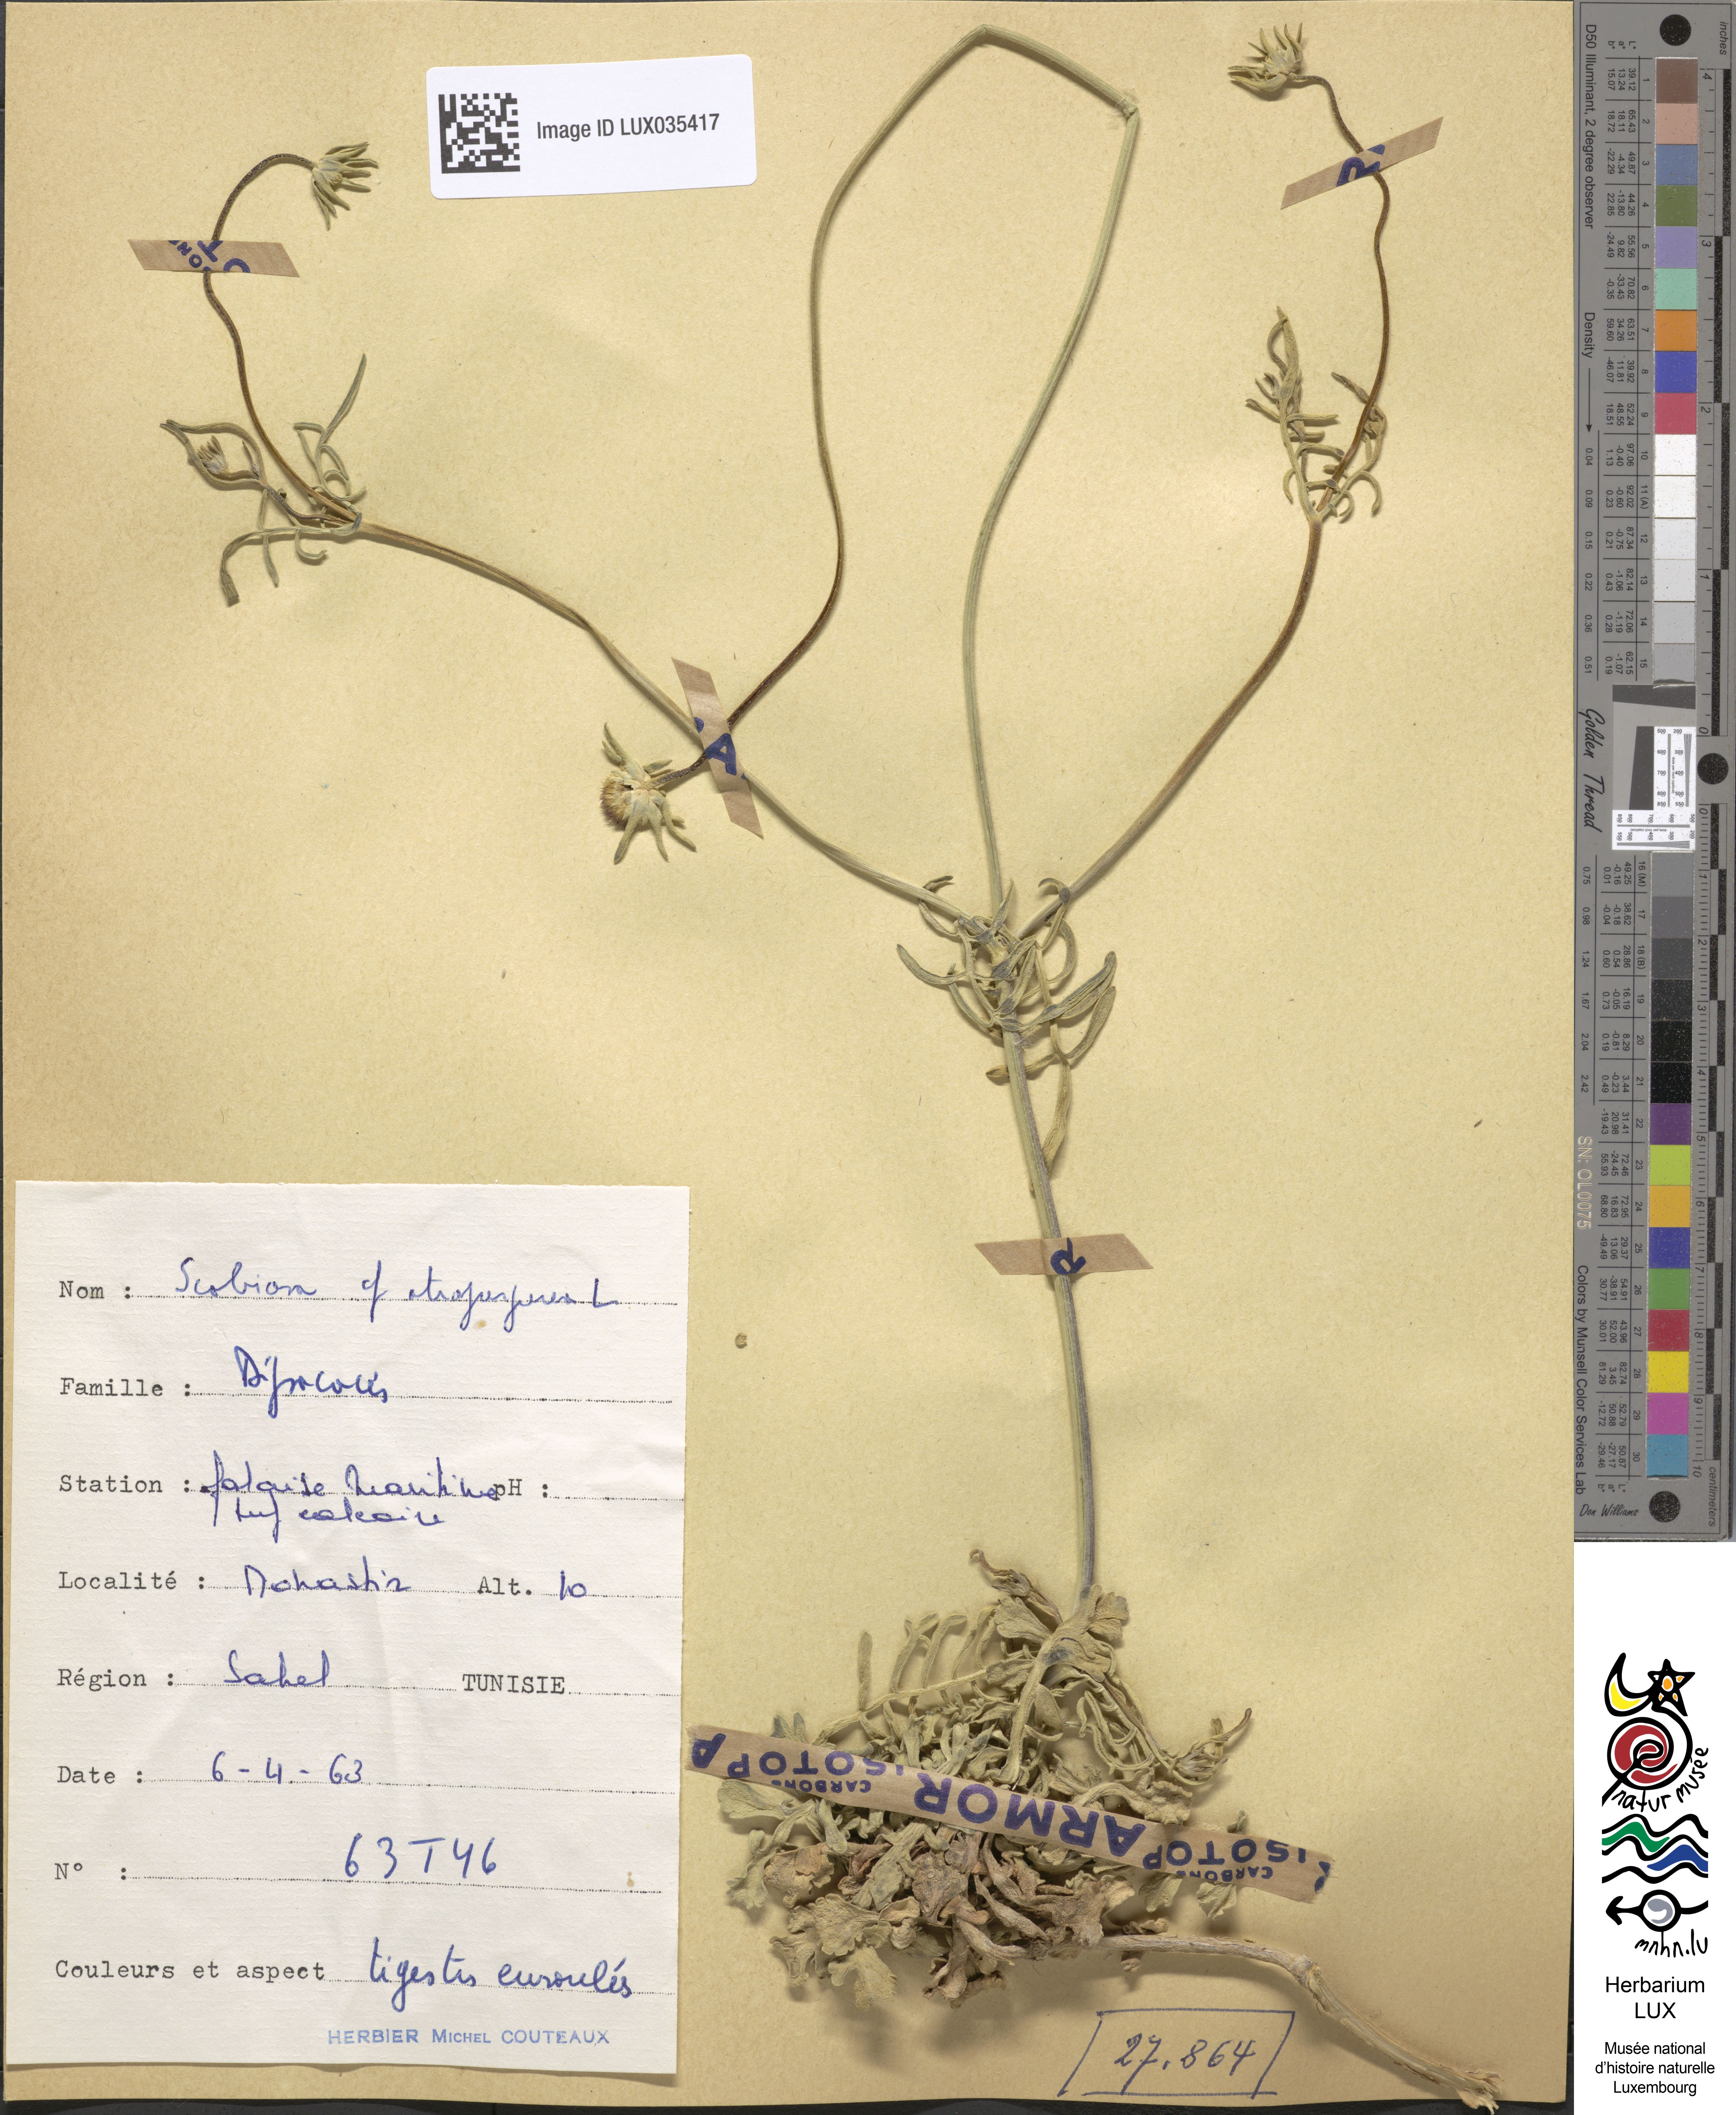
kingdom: Plantae
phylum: Tracheophyta
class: Magnoliopsida
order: Dipsacales
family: Caprifoliaceae
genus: Sixalix
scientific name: Sixalix atropurpurea
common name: Sweet scabious
